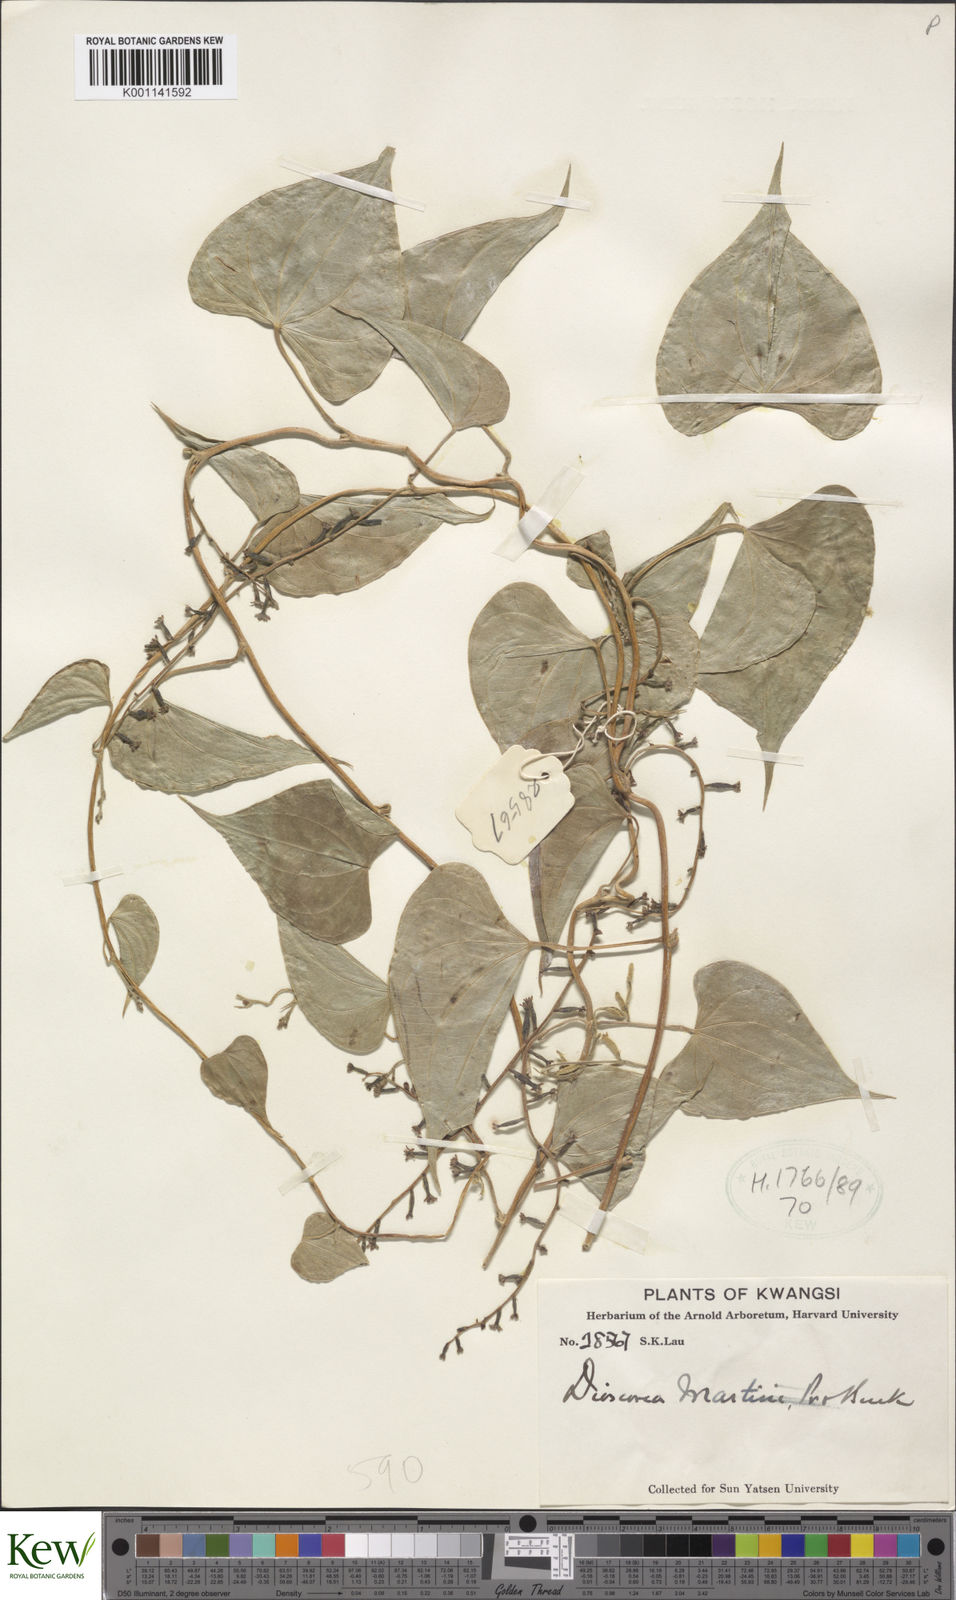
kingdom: Plantae
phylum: Tracheophyta
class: Liliopsida
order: Dioscoreales
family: Dioscoreaceae
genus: Dioscorea
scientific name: Dioscorea martini
